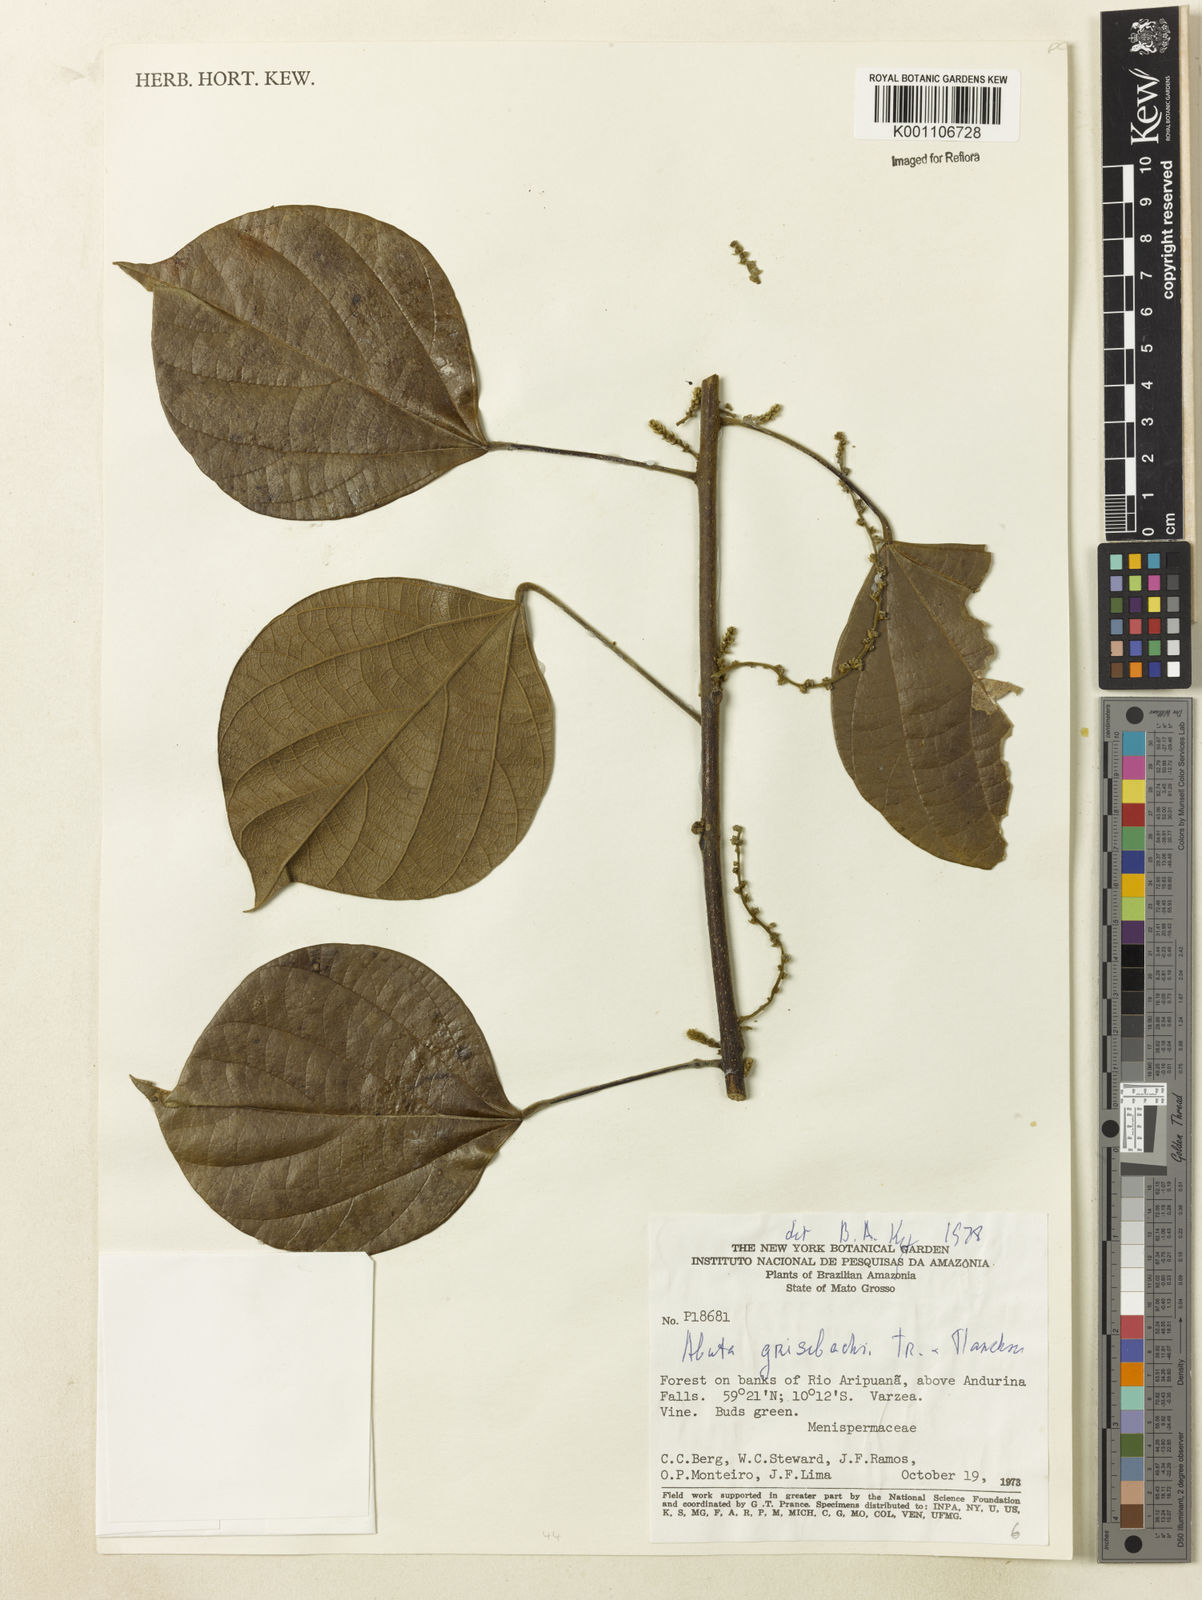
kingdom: Plantae
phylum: Tracheophyta
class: Magnoliopsida
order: Ranunculales
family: Menispermaceae
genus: Abuta
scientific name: Abuta grisebachii
